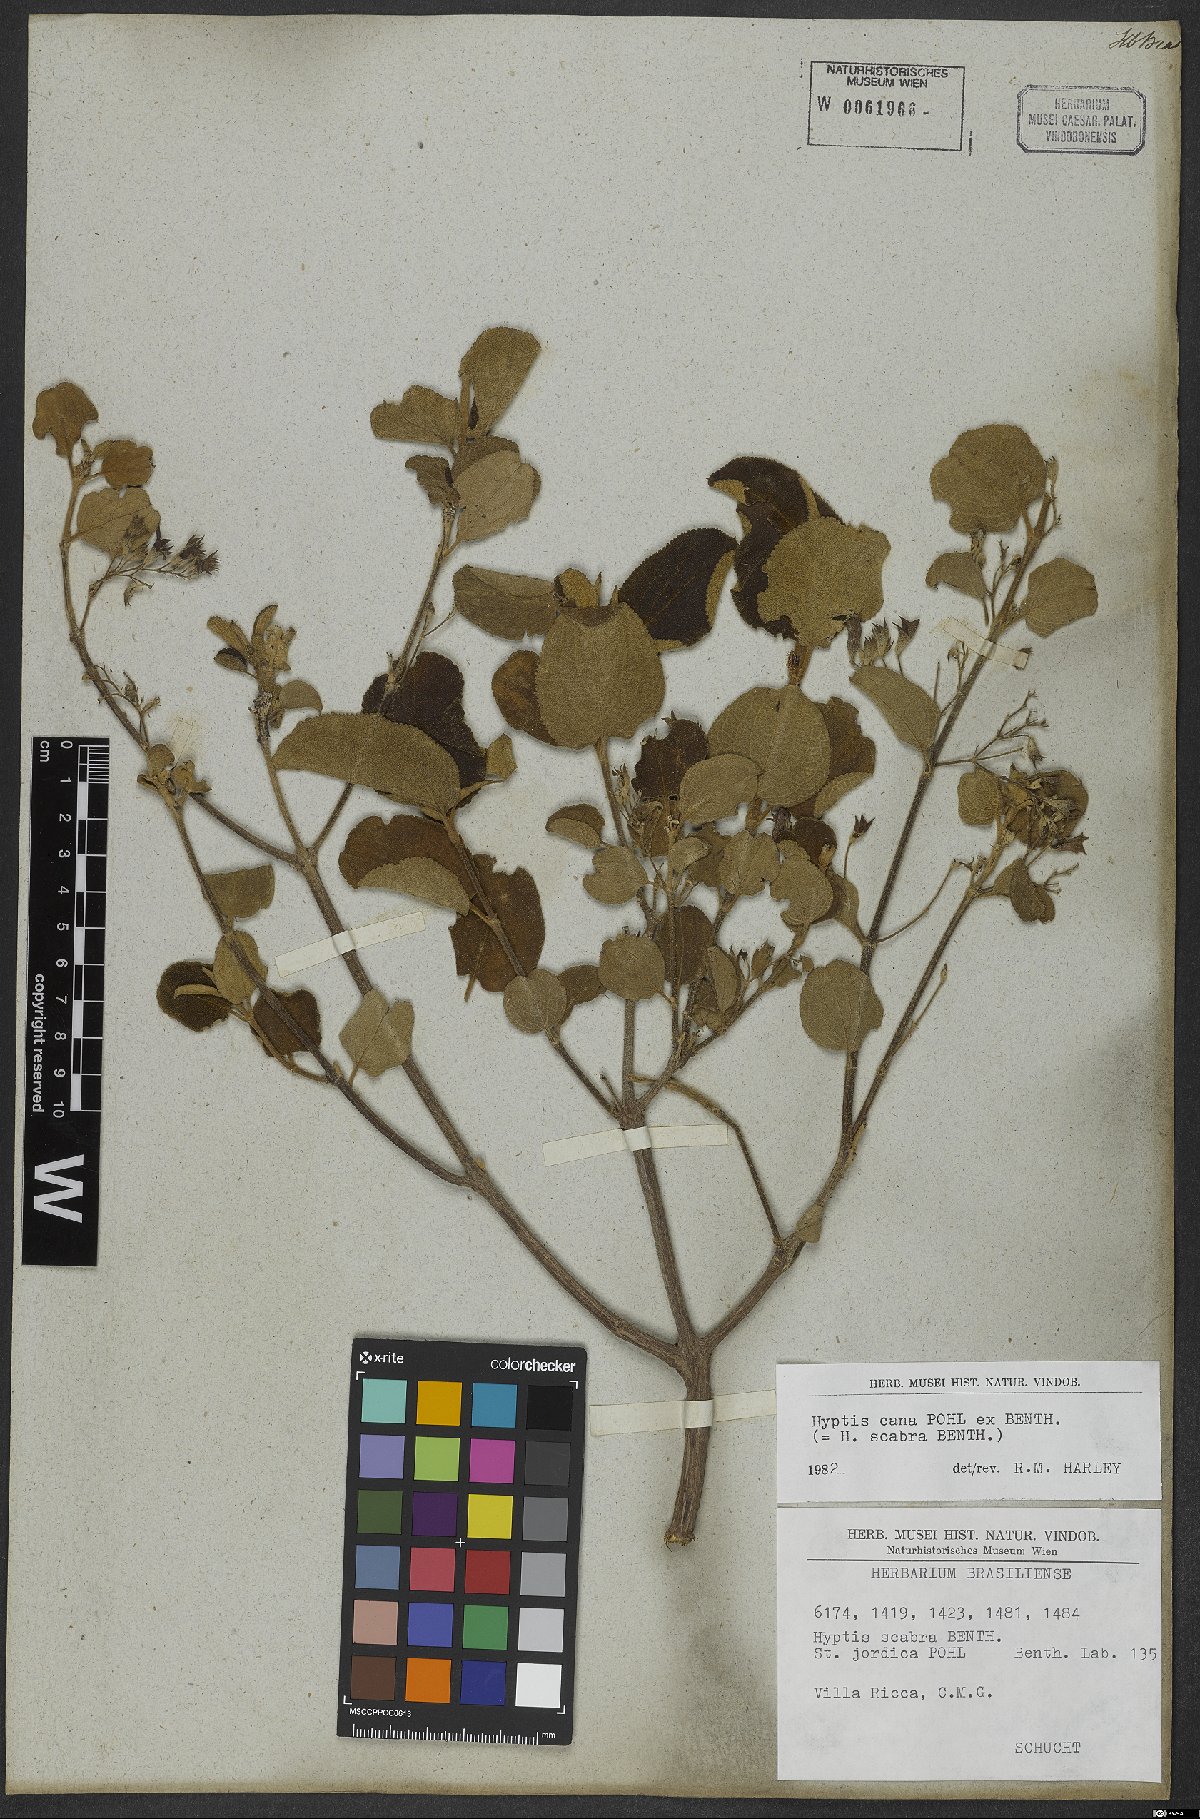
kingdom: Plantae
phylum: Tracheophyta
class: Magnoliopsida
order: Lamiales
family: Lamiaceae
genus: Hyptidendron
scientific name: Hyptidendron canum
